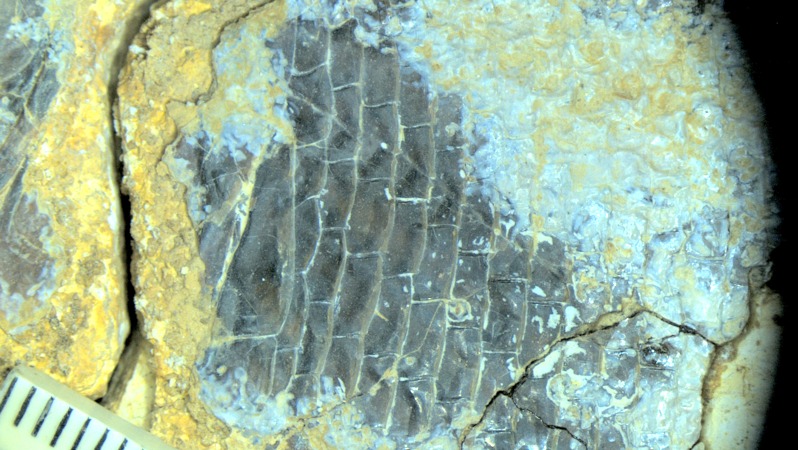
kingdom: Animalia
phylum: Chordata
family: Callipurbeckiidae
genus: Macrosemimimus
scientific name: Macrosemimimus fegerti
